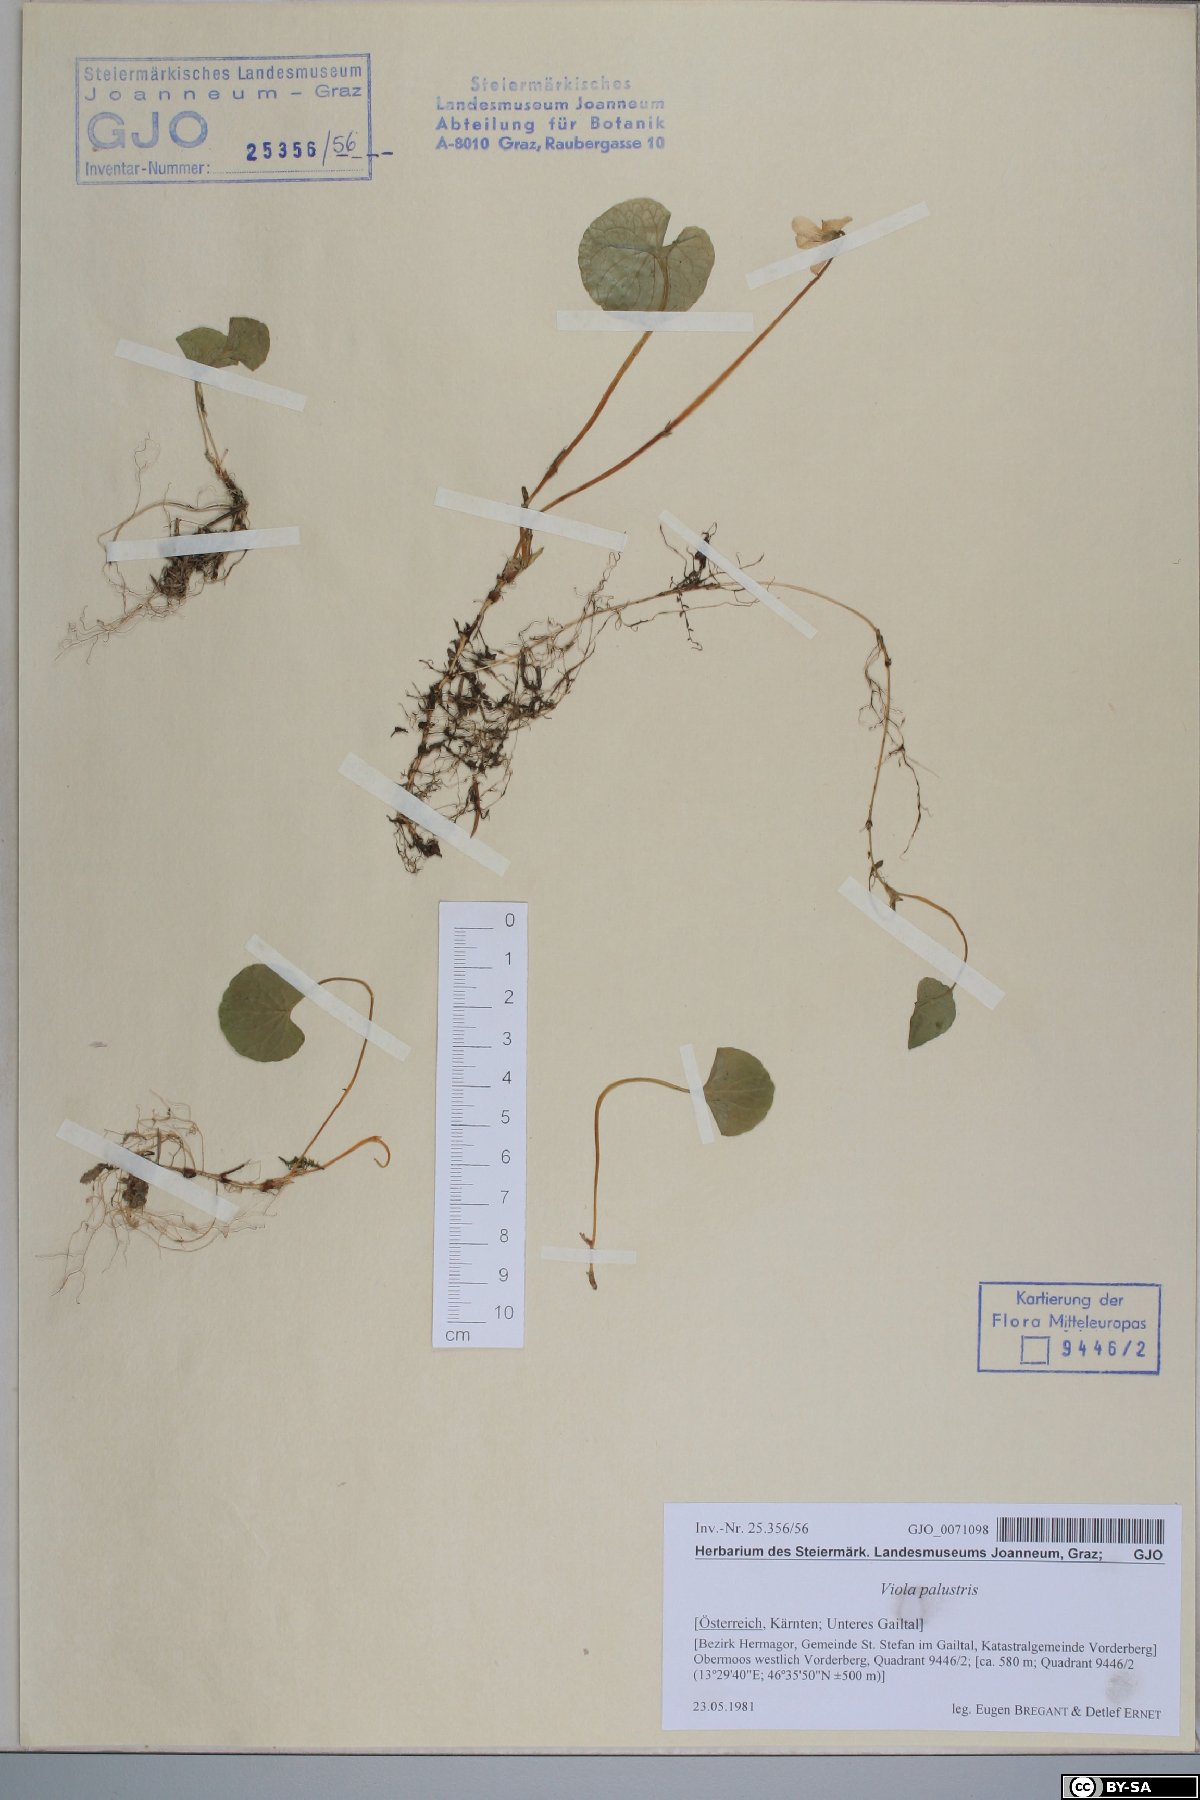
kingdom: Plantae
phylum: Tracheophyta
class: Magnoliopsida
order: Malpighiales
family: Violaceae
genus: Viola
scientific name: Viola palustris
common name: Marsh violet
